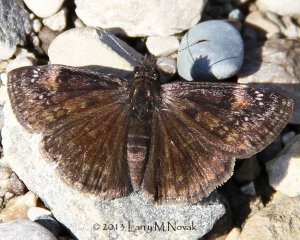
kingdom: Animalia
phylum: Arthropoda
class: Insecta
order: Lepidoptera
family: Hesperiidae
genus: Gesta
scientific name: Gesta
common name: Wild Indigo Duskywing
